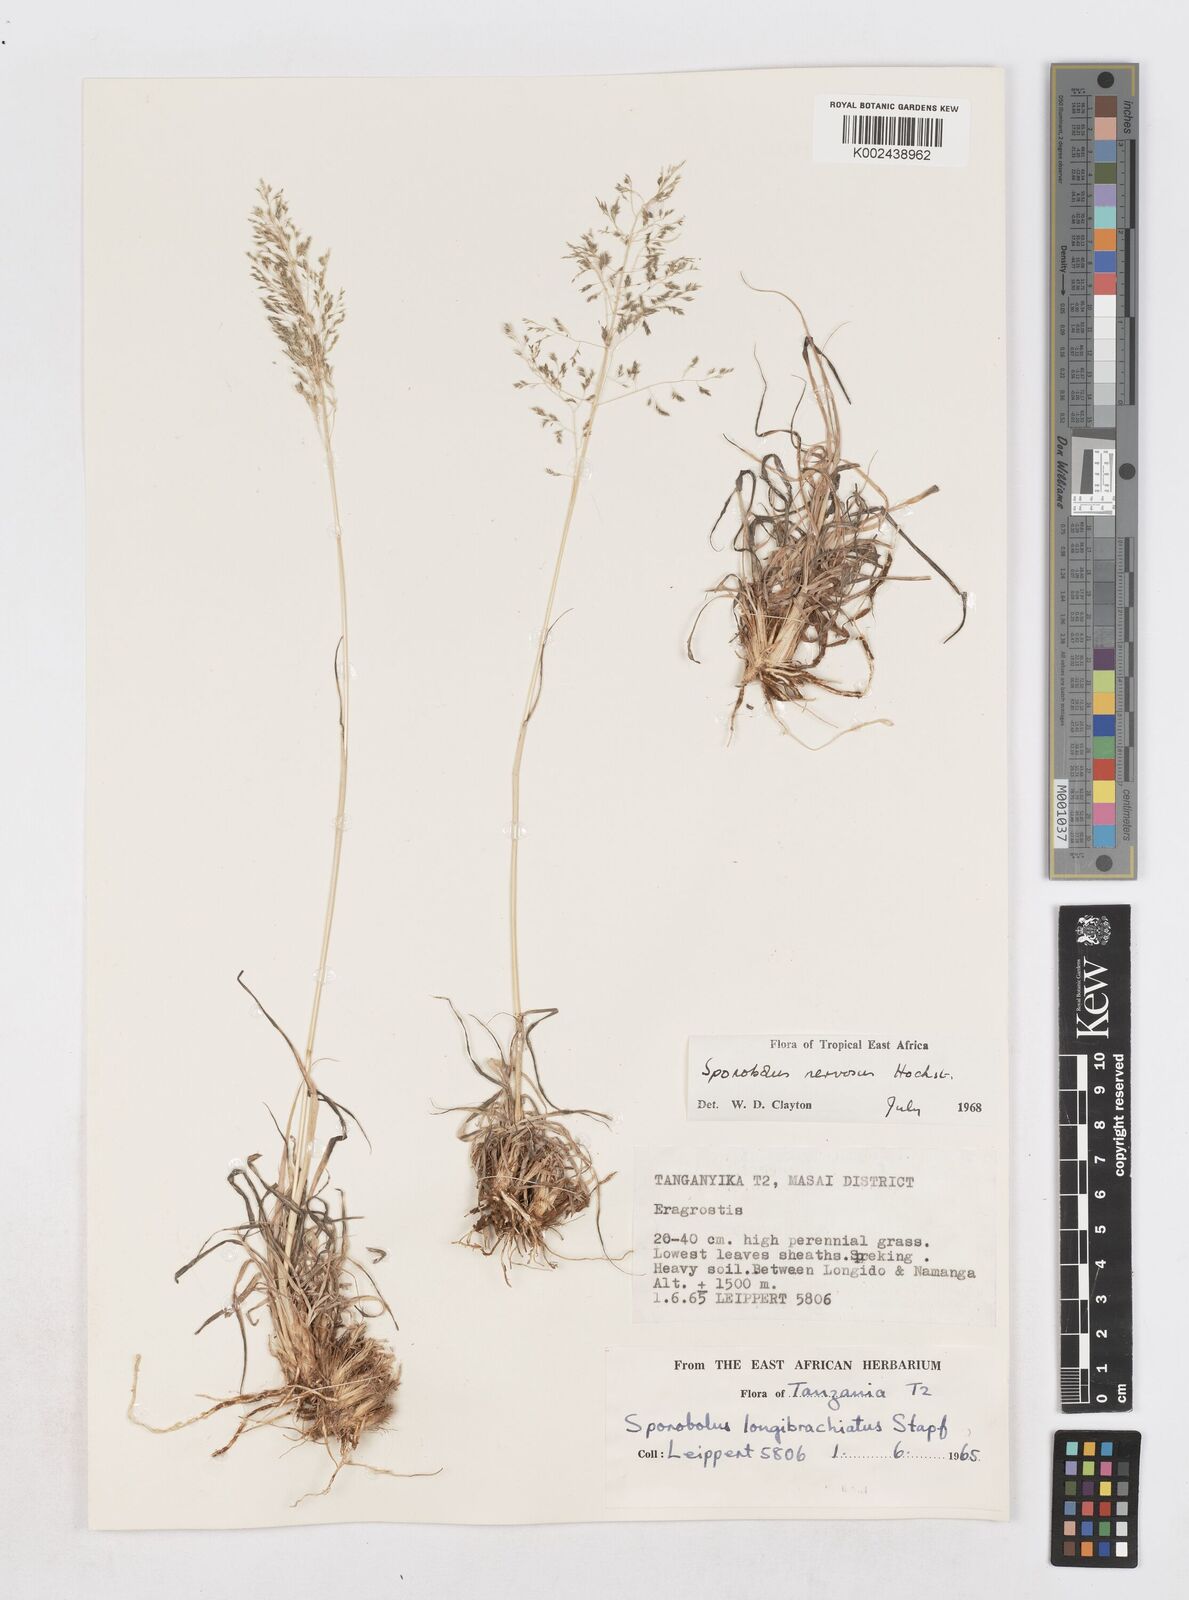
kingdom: Plantae
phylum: Tracheophyta
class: Liliopsida
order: Poales
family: Poaceae
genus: Sporobolus
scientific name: Sporobolus nervosus
